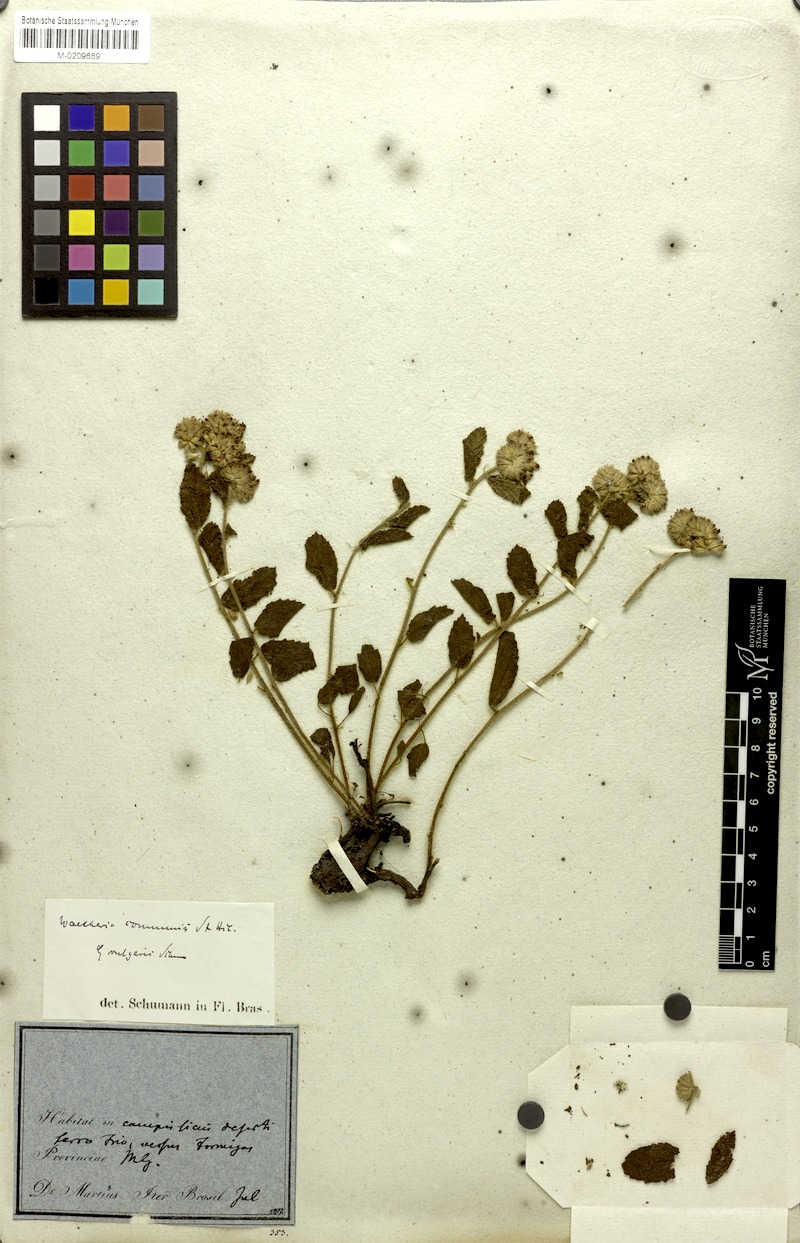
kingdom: Plantae
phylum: Tracheophyta
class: Magnoliopsida
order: Malvales
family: Malvaceae
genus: Waltheria
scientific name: Waltheria communis
